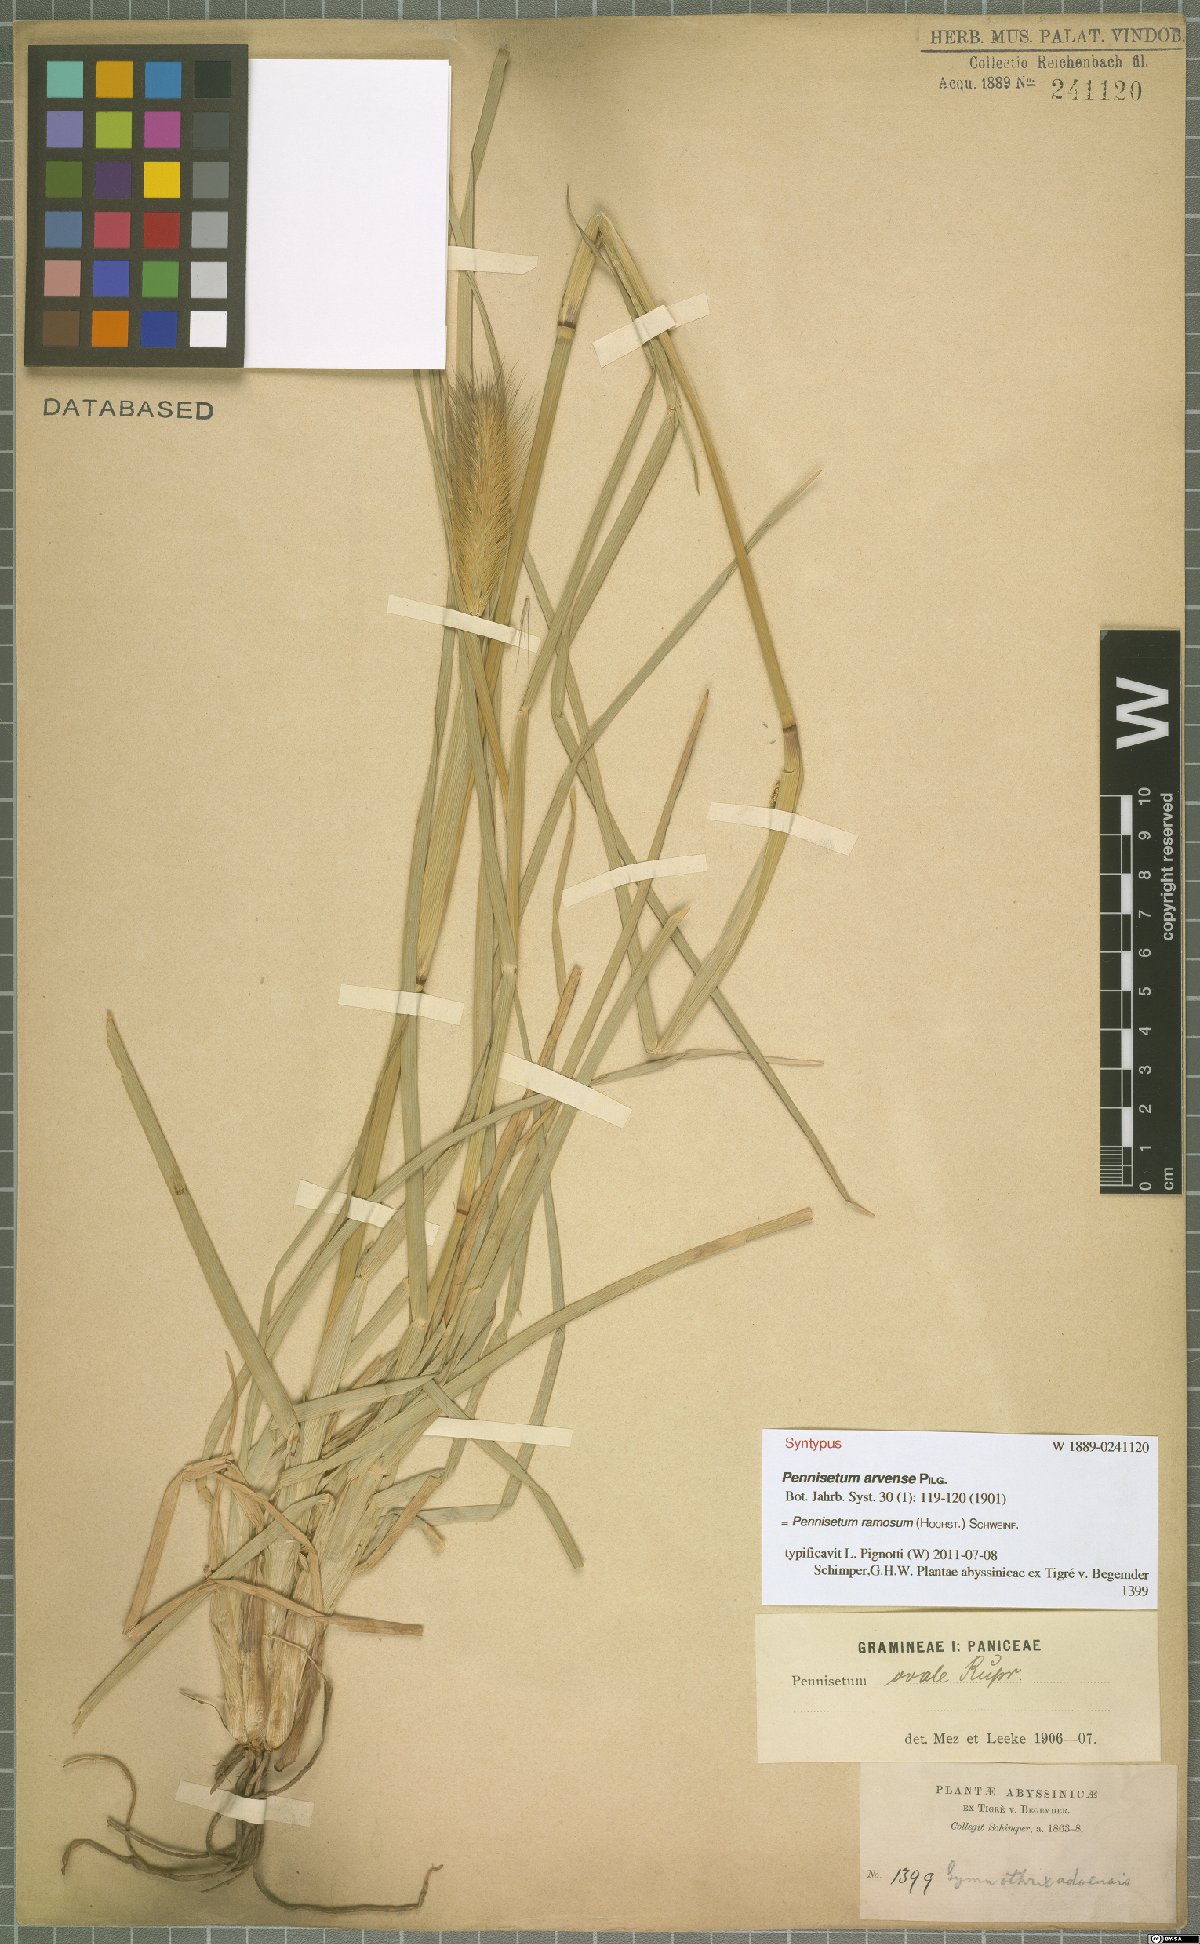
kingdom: Plantae
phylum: Tracheophyta
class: Liliopsida
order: Poales
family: Poaceae
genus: Cenchrus
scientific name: Cenchrus ramosus
